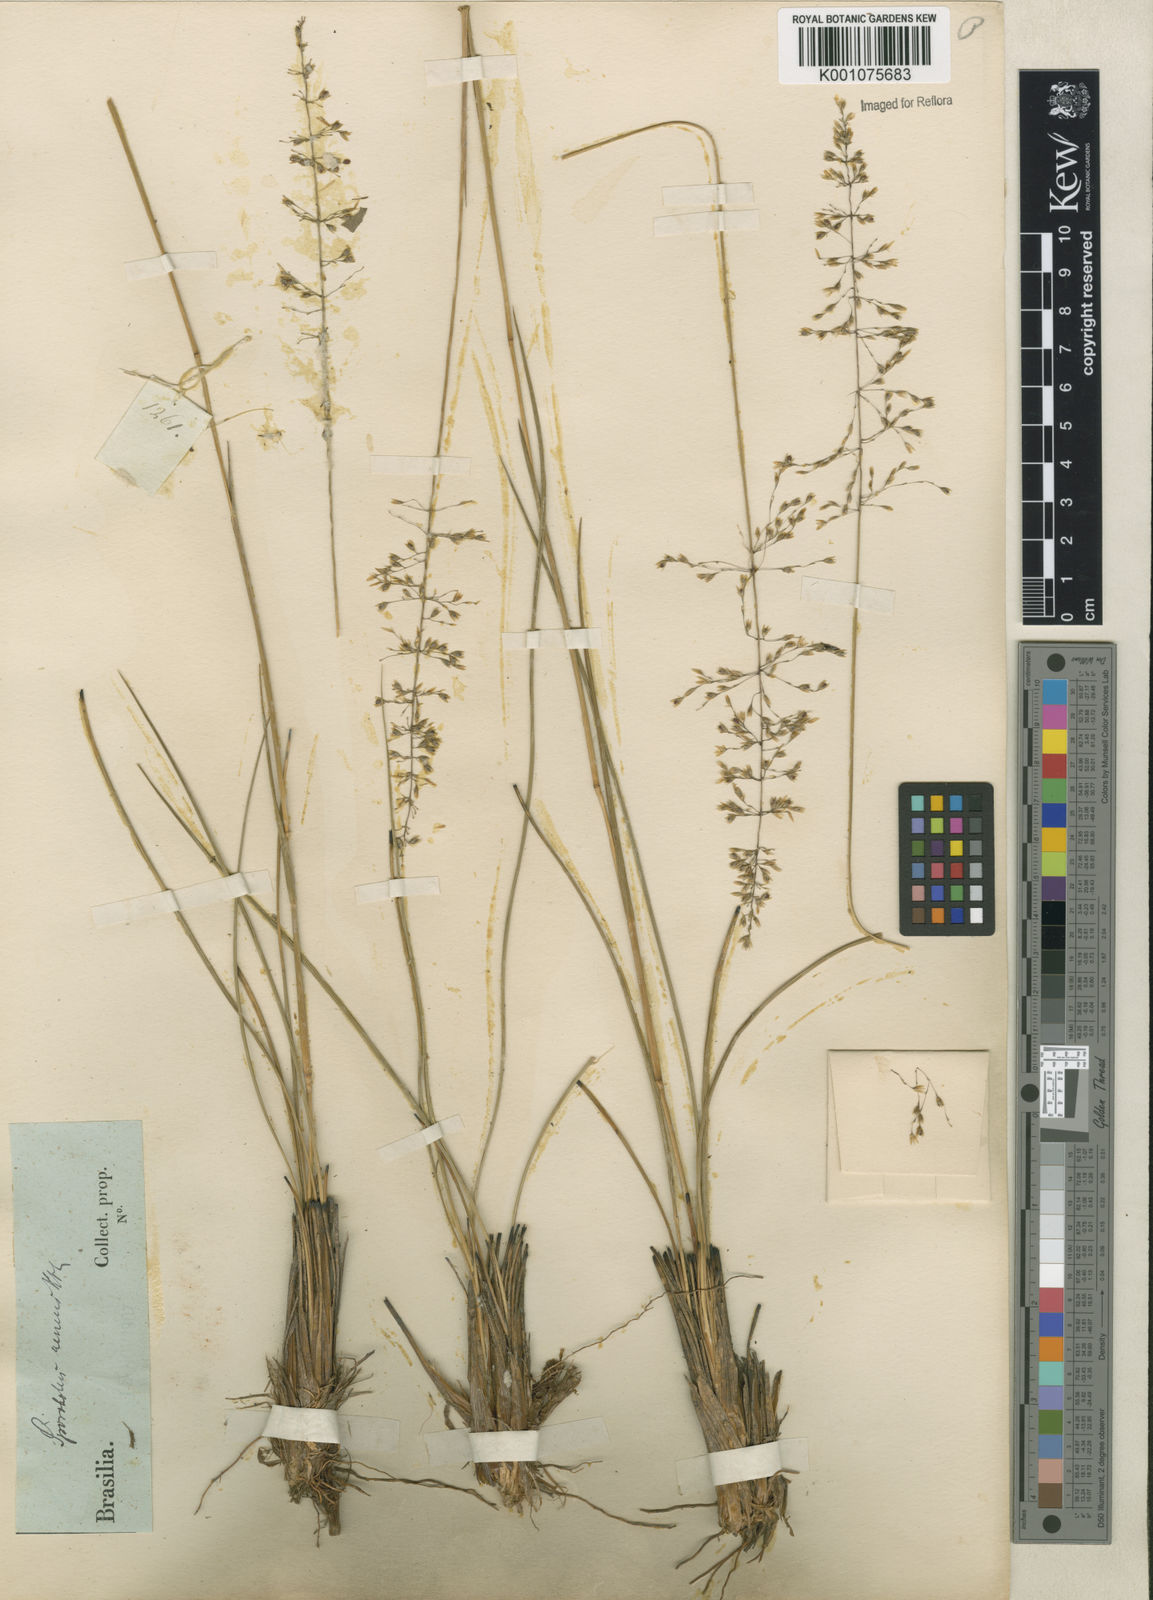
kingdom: Plantae
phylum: Tracheophyta
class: Liliopsida
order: Poales
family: Poaceae
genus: Sporobolus
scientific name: Sporobolus cubensis
